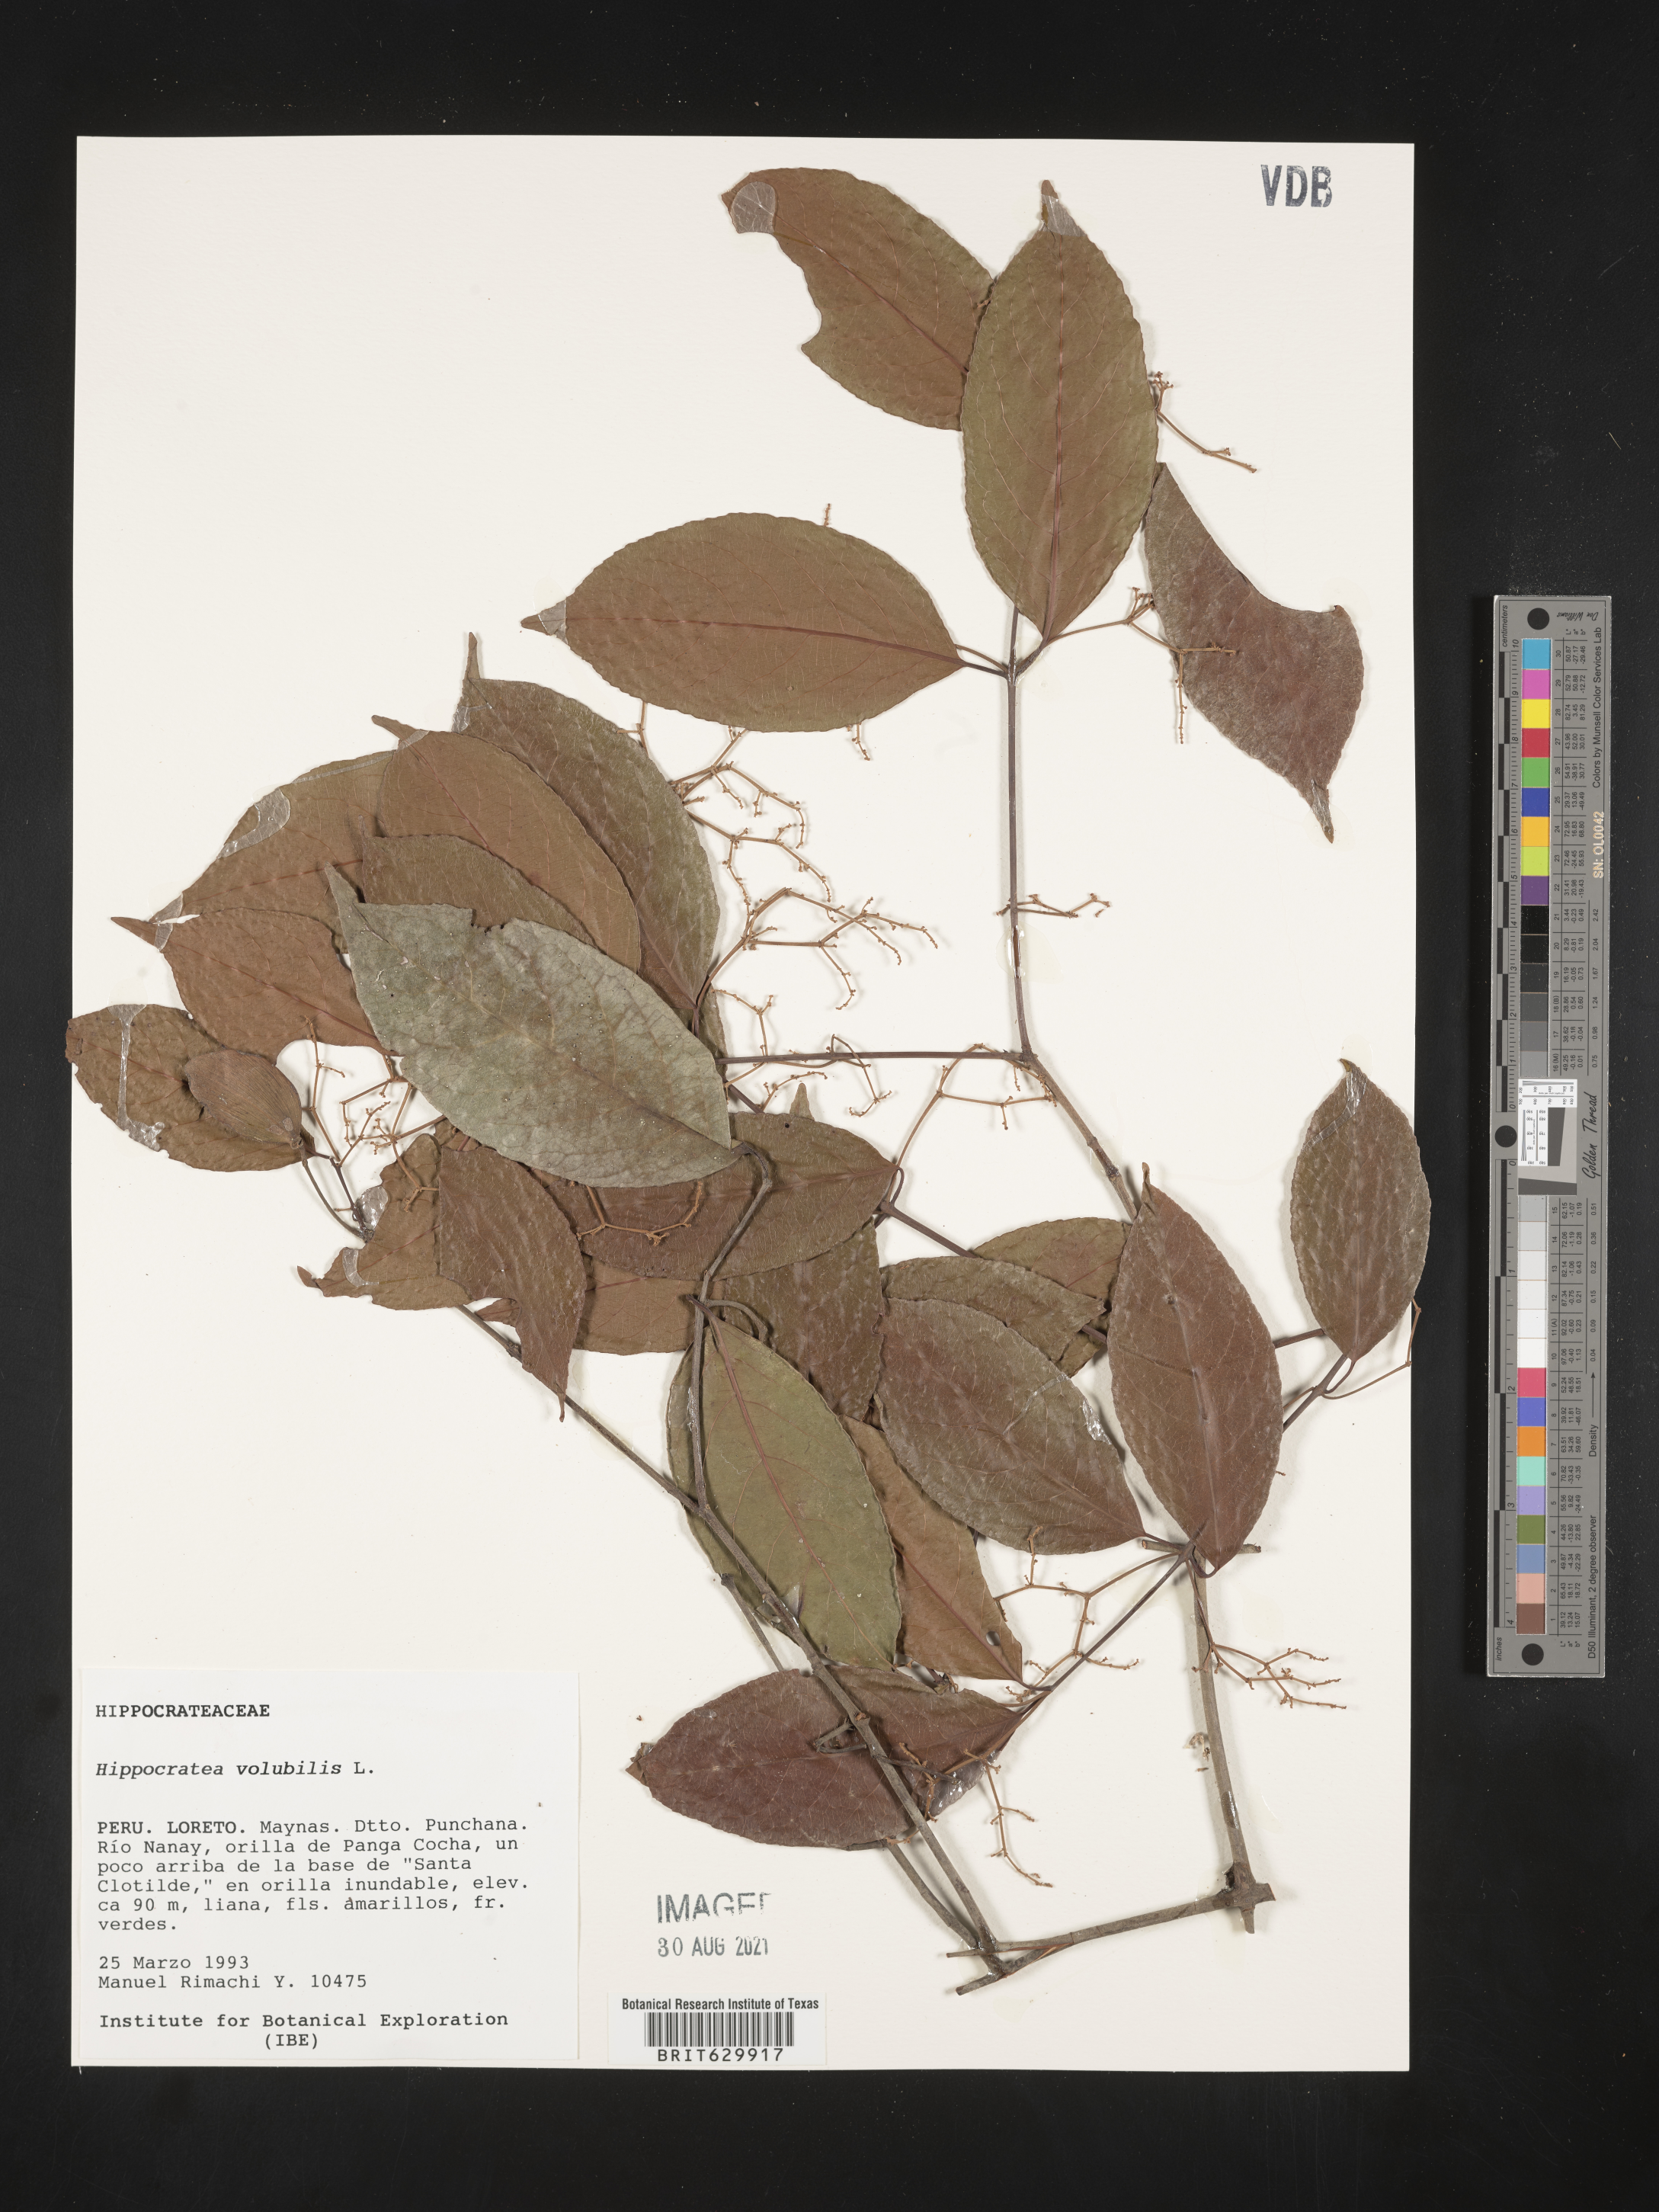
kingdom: Plantae
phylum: Tracheophyta
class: Magnoliopsida
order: Celastrales
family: Celastraceae
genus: Hippocratea
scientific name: Hippocratea volubilis
